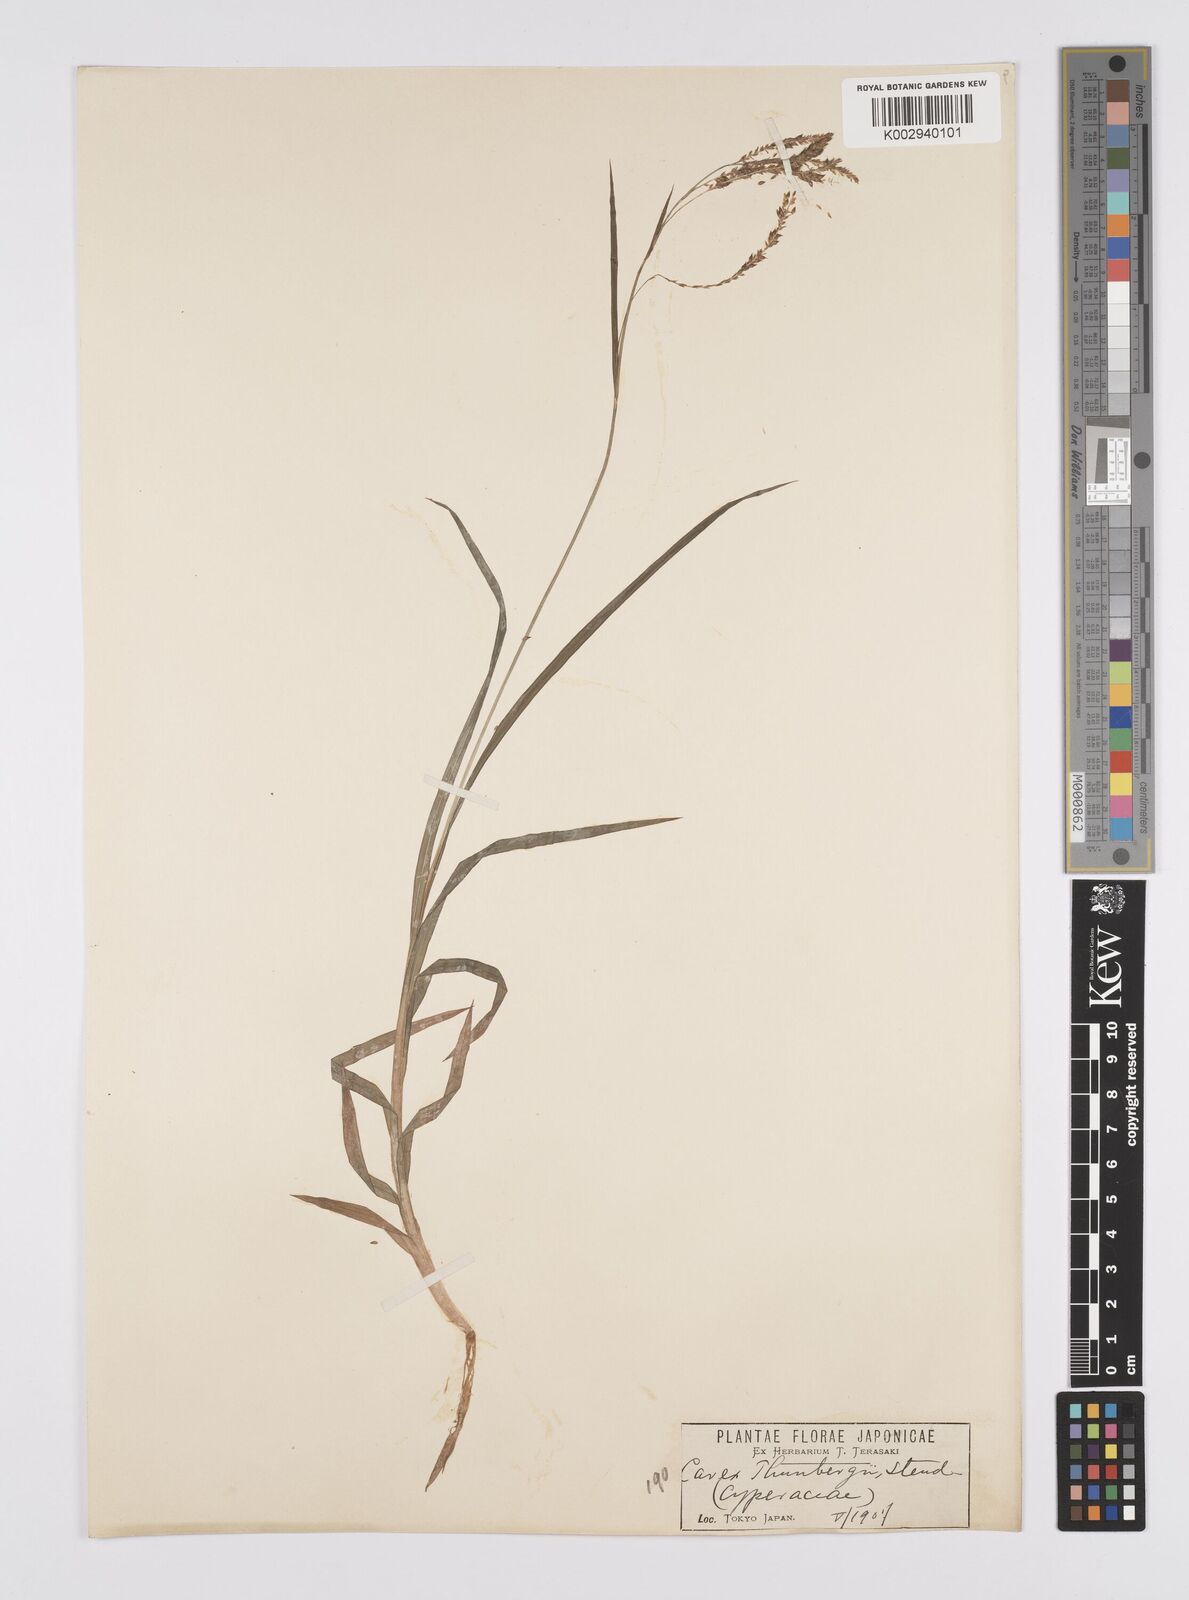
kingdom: Plantae
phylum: Tracheophyta
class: Liliopsida
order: Poales
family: Cyperaceae
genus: Carex
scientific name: Carex thunbergii
